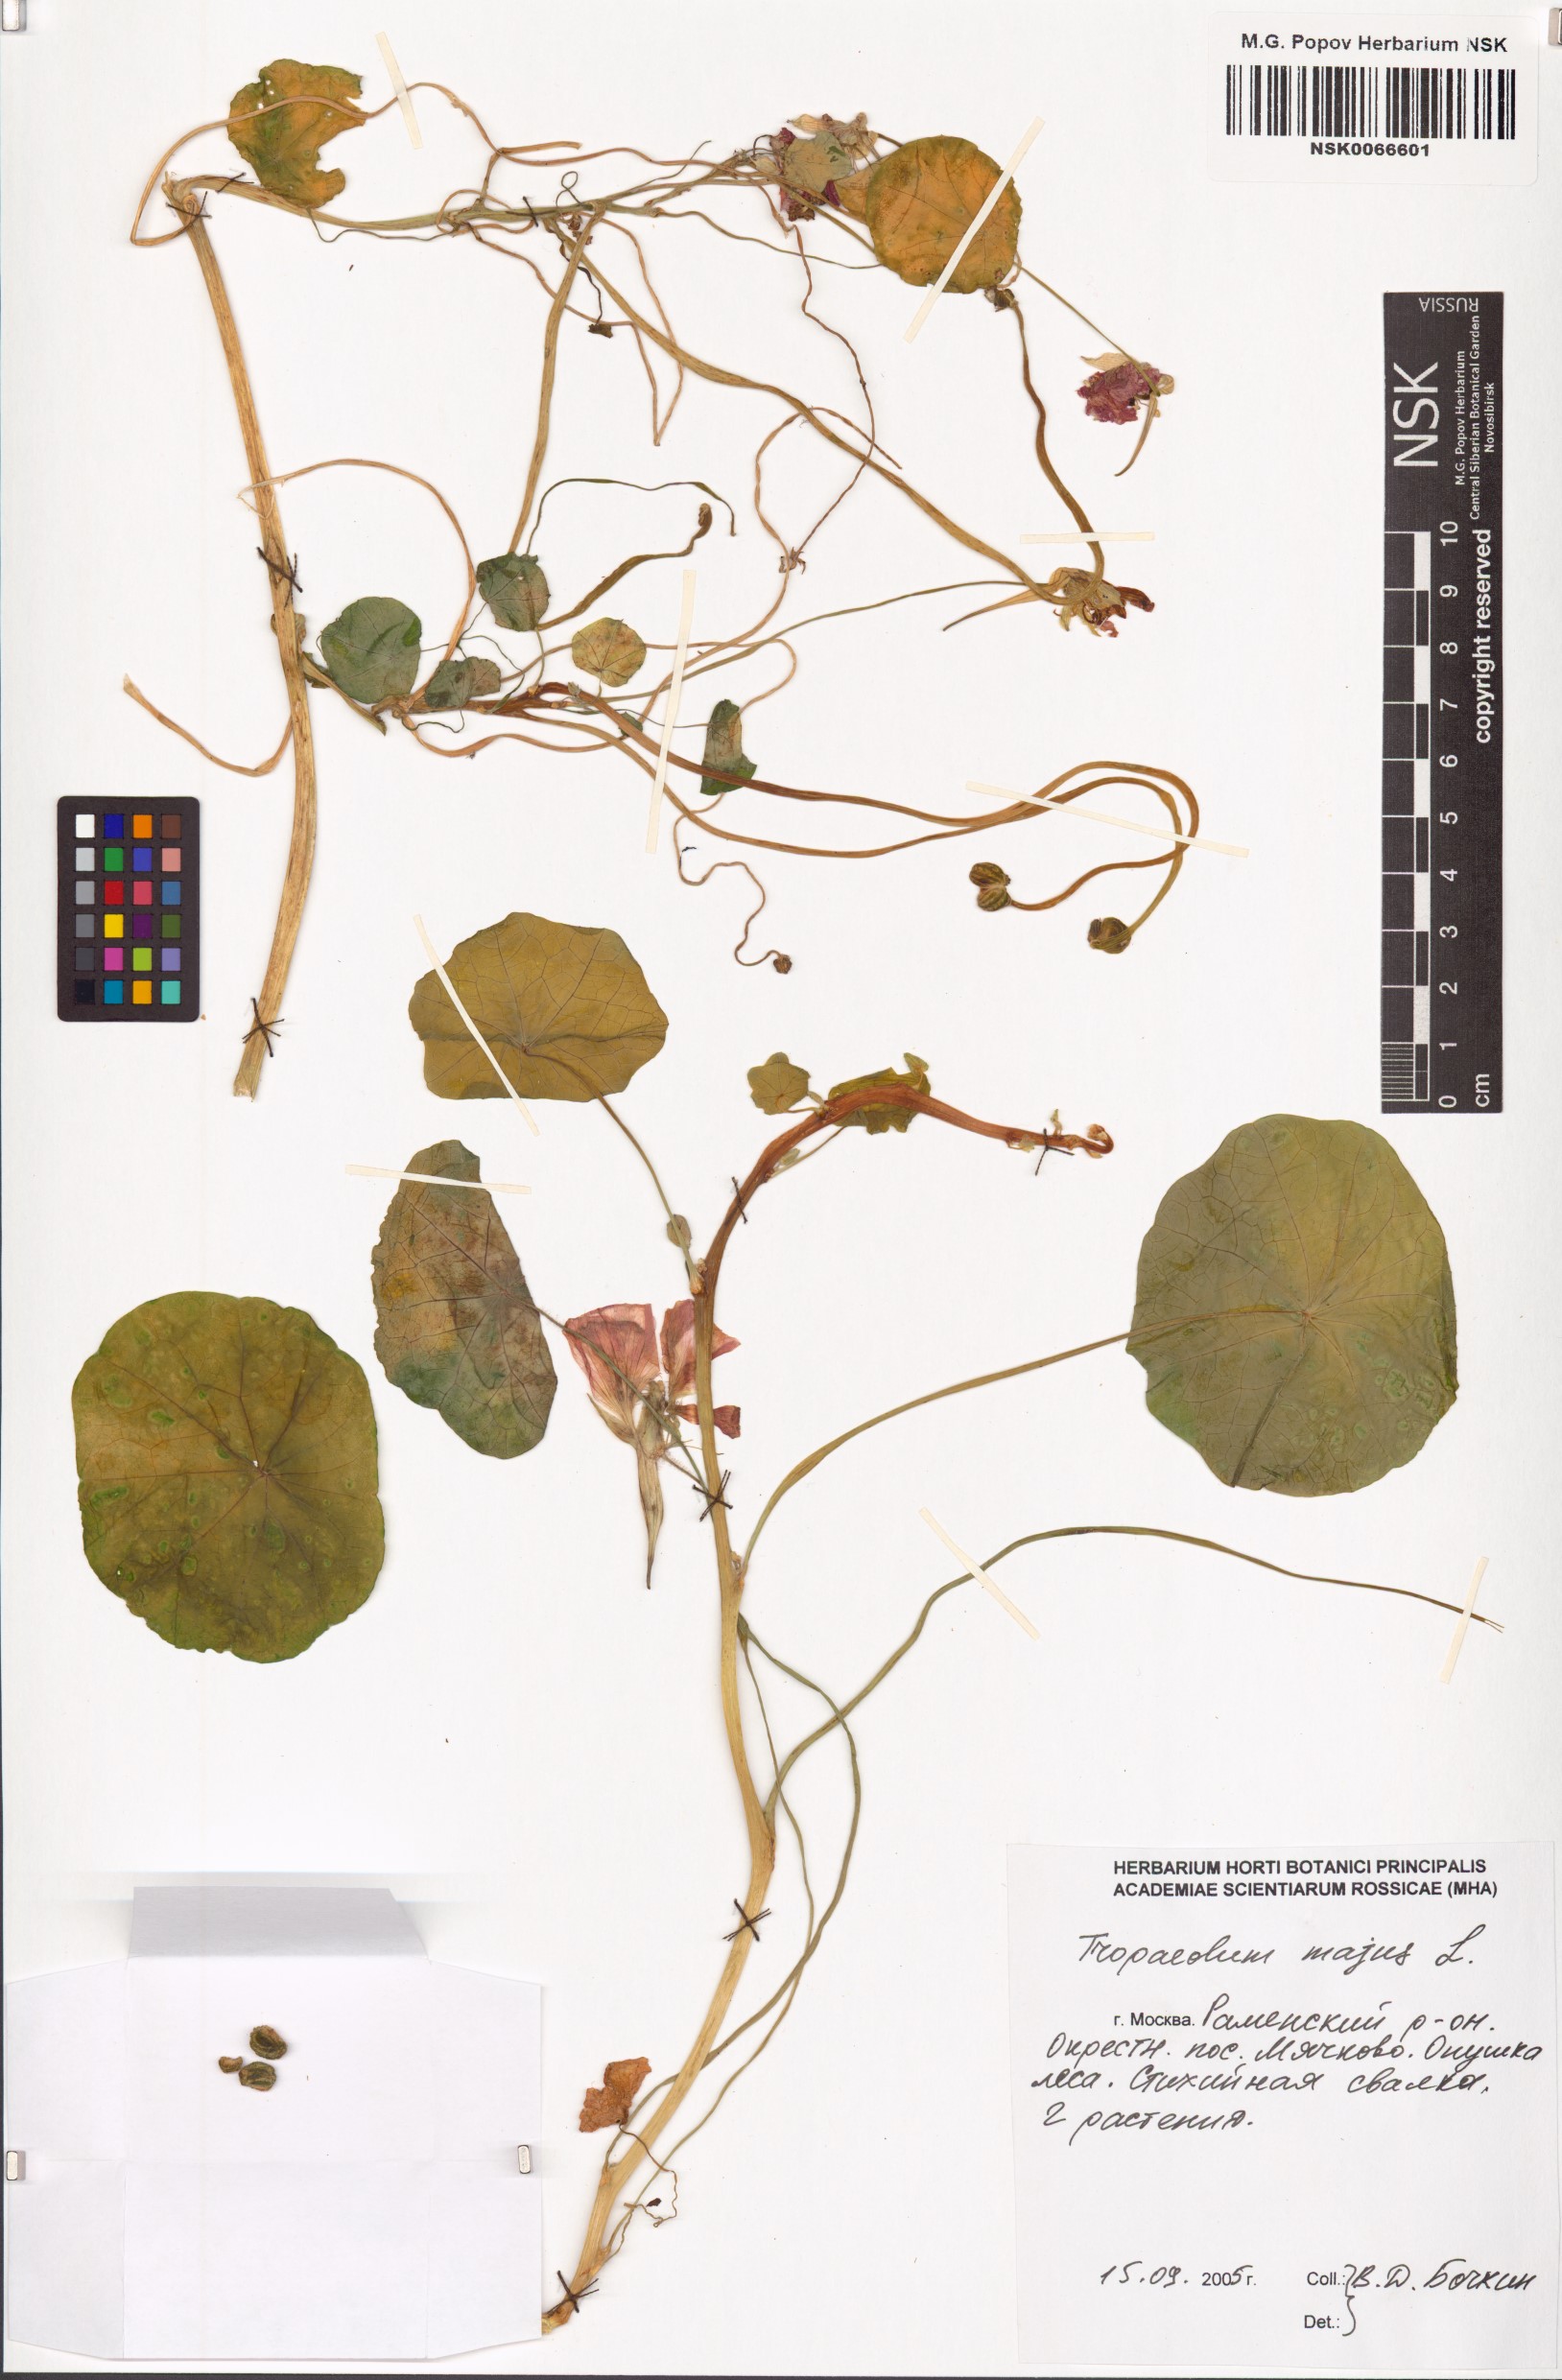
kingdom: Plantae
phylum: Tracheophyta
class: Magnoliopsida
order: Brassicales
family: Tropaeolaceae
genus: Tropaeolum
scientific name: Tropaeolum majus
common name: Nasturtium
